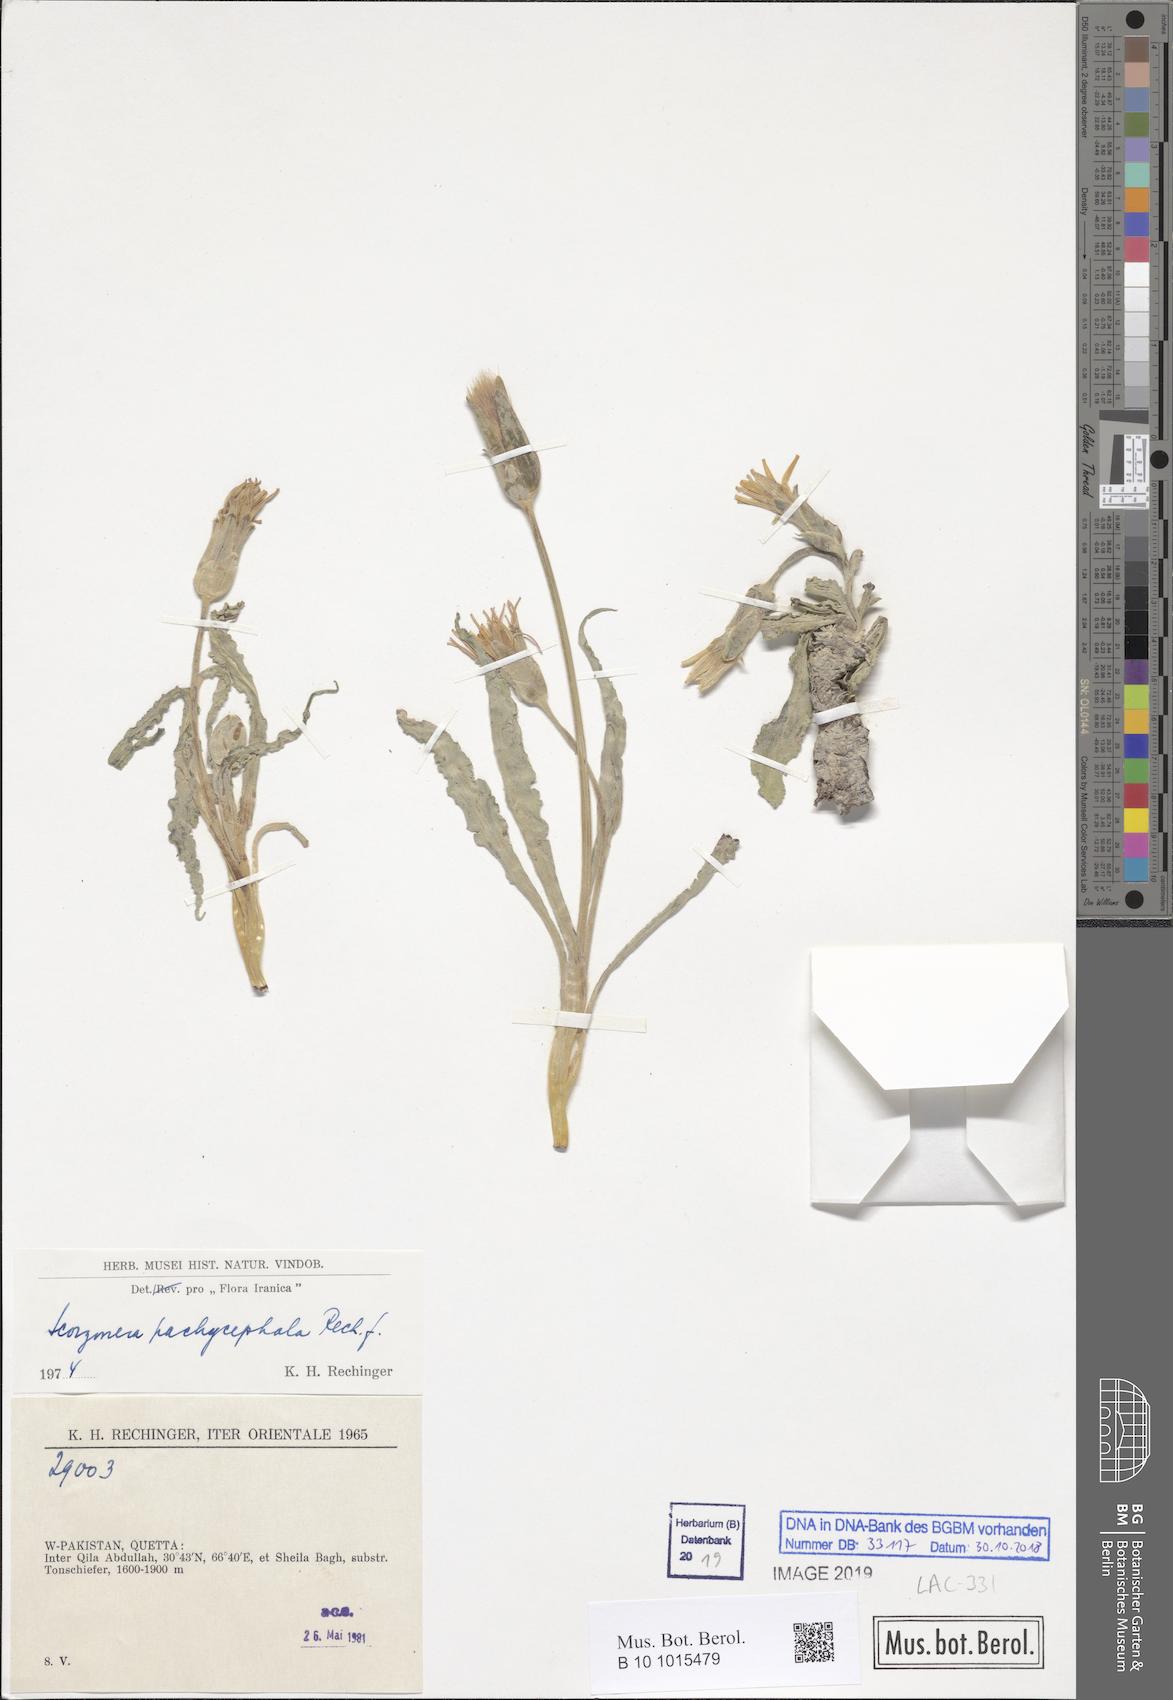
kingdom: Plantae
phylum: Tracheophyta
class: Magnoliopsida
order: Asterales
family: Asteraceae
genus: Pseudopodospermum
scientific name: Pseudopodospermum pachycephalum
